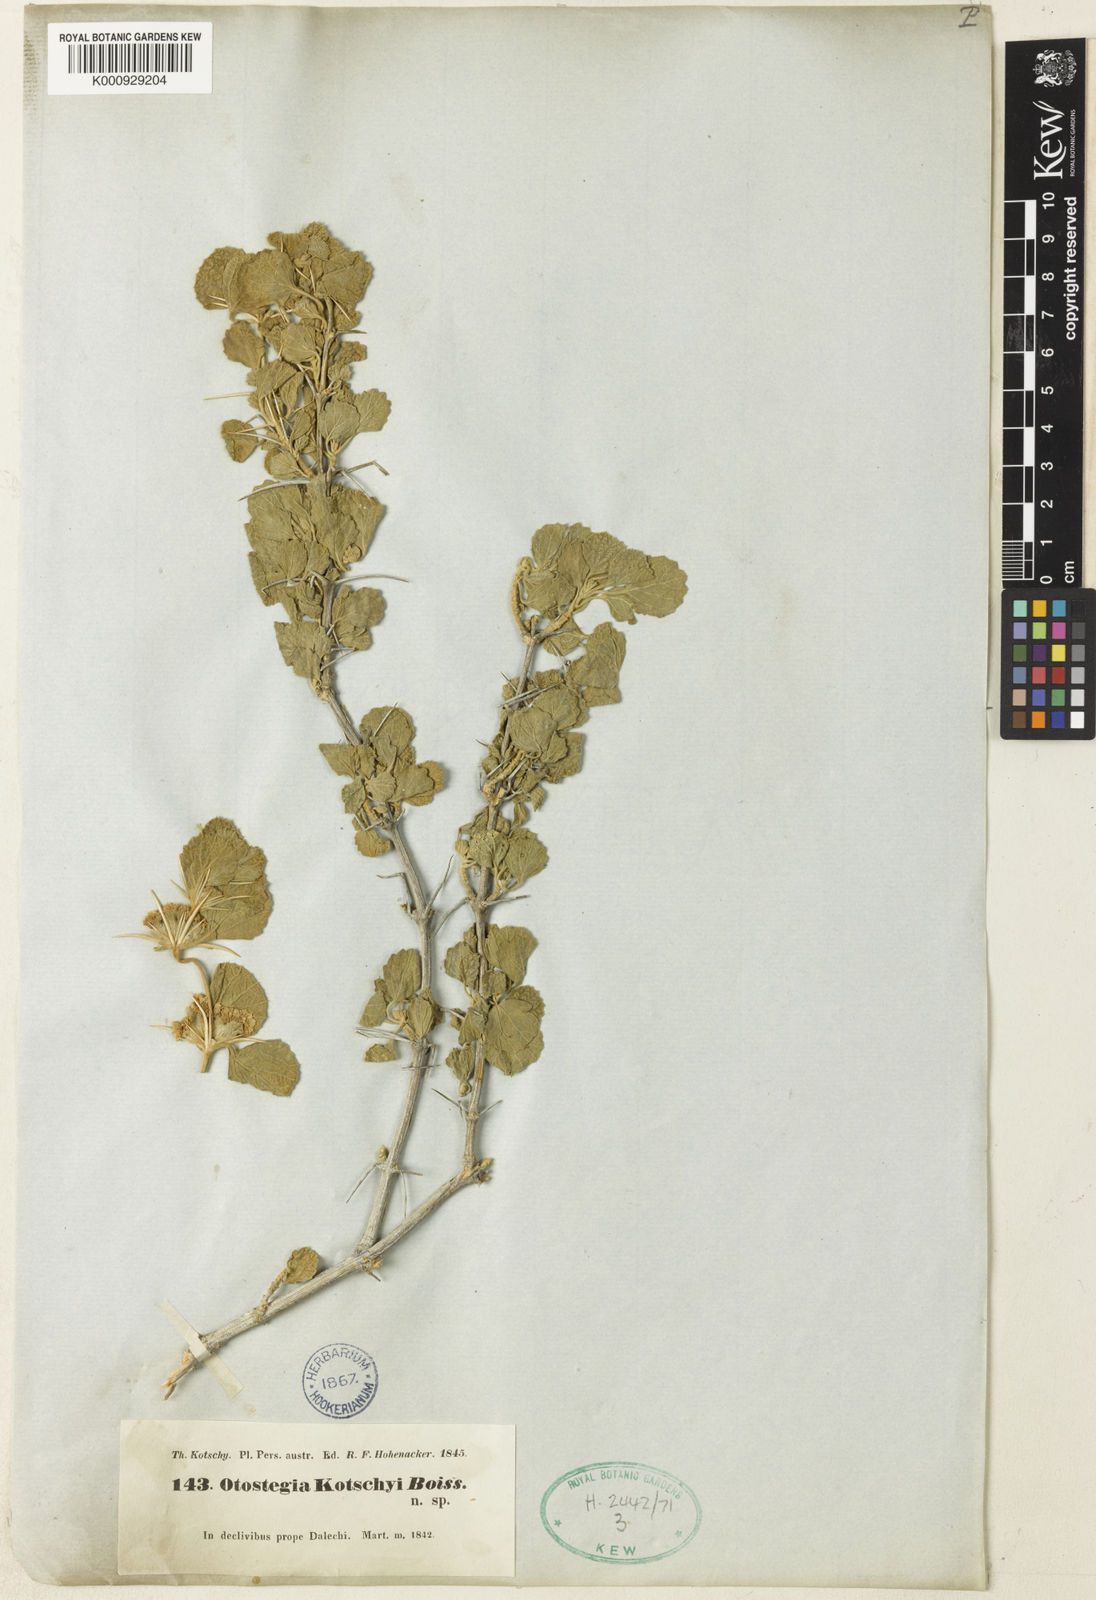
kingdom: Plantae
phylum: Tracheophyta
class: Magnoliopsida
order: Lamiales
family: Lamiaceae
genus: Rydingia
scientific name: Rydingia persica
